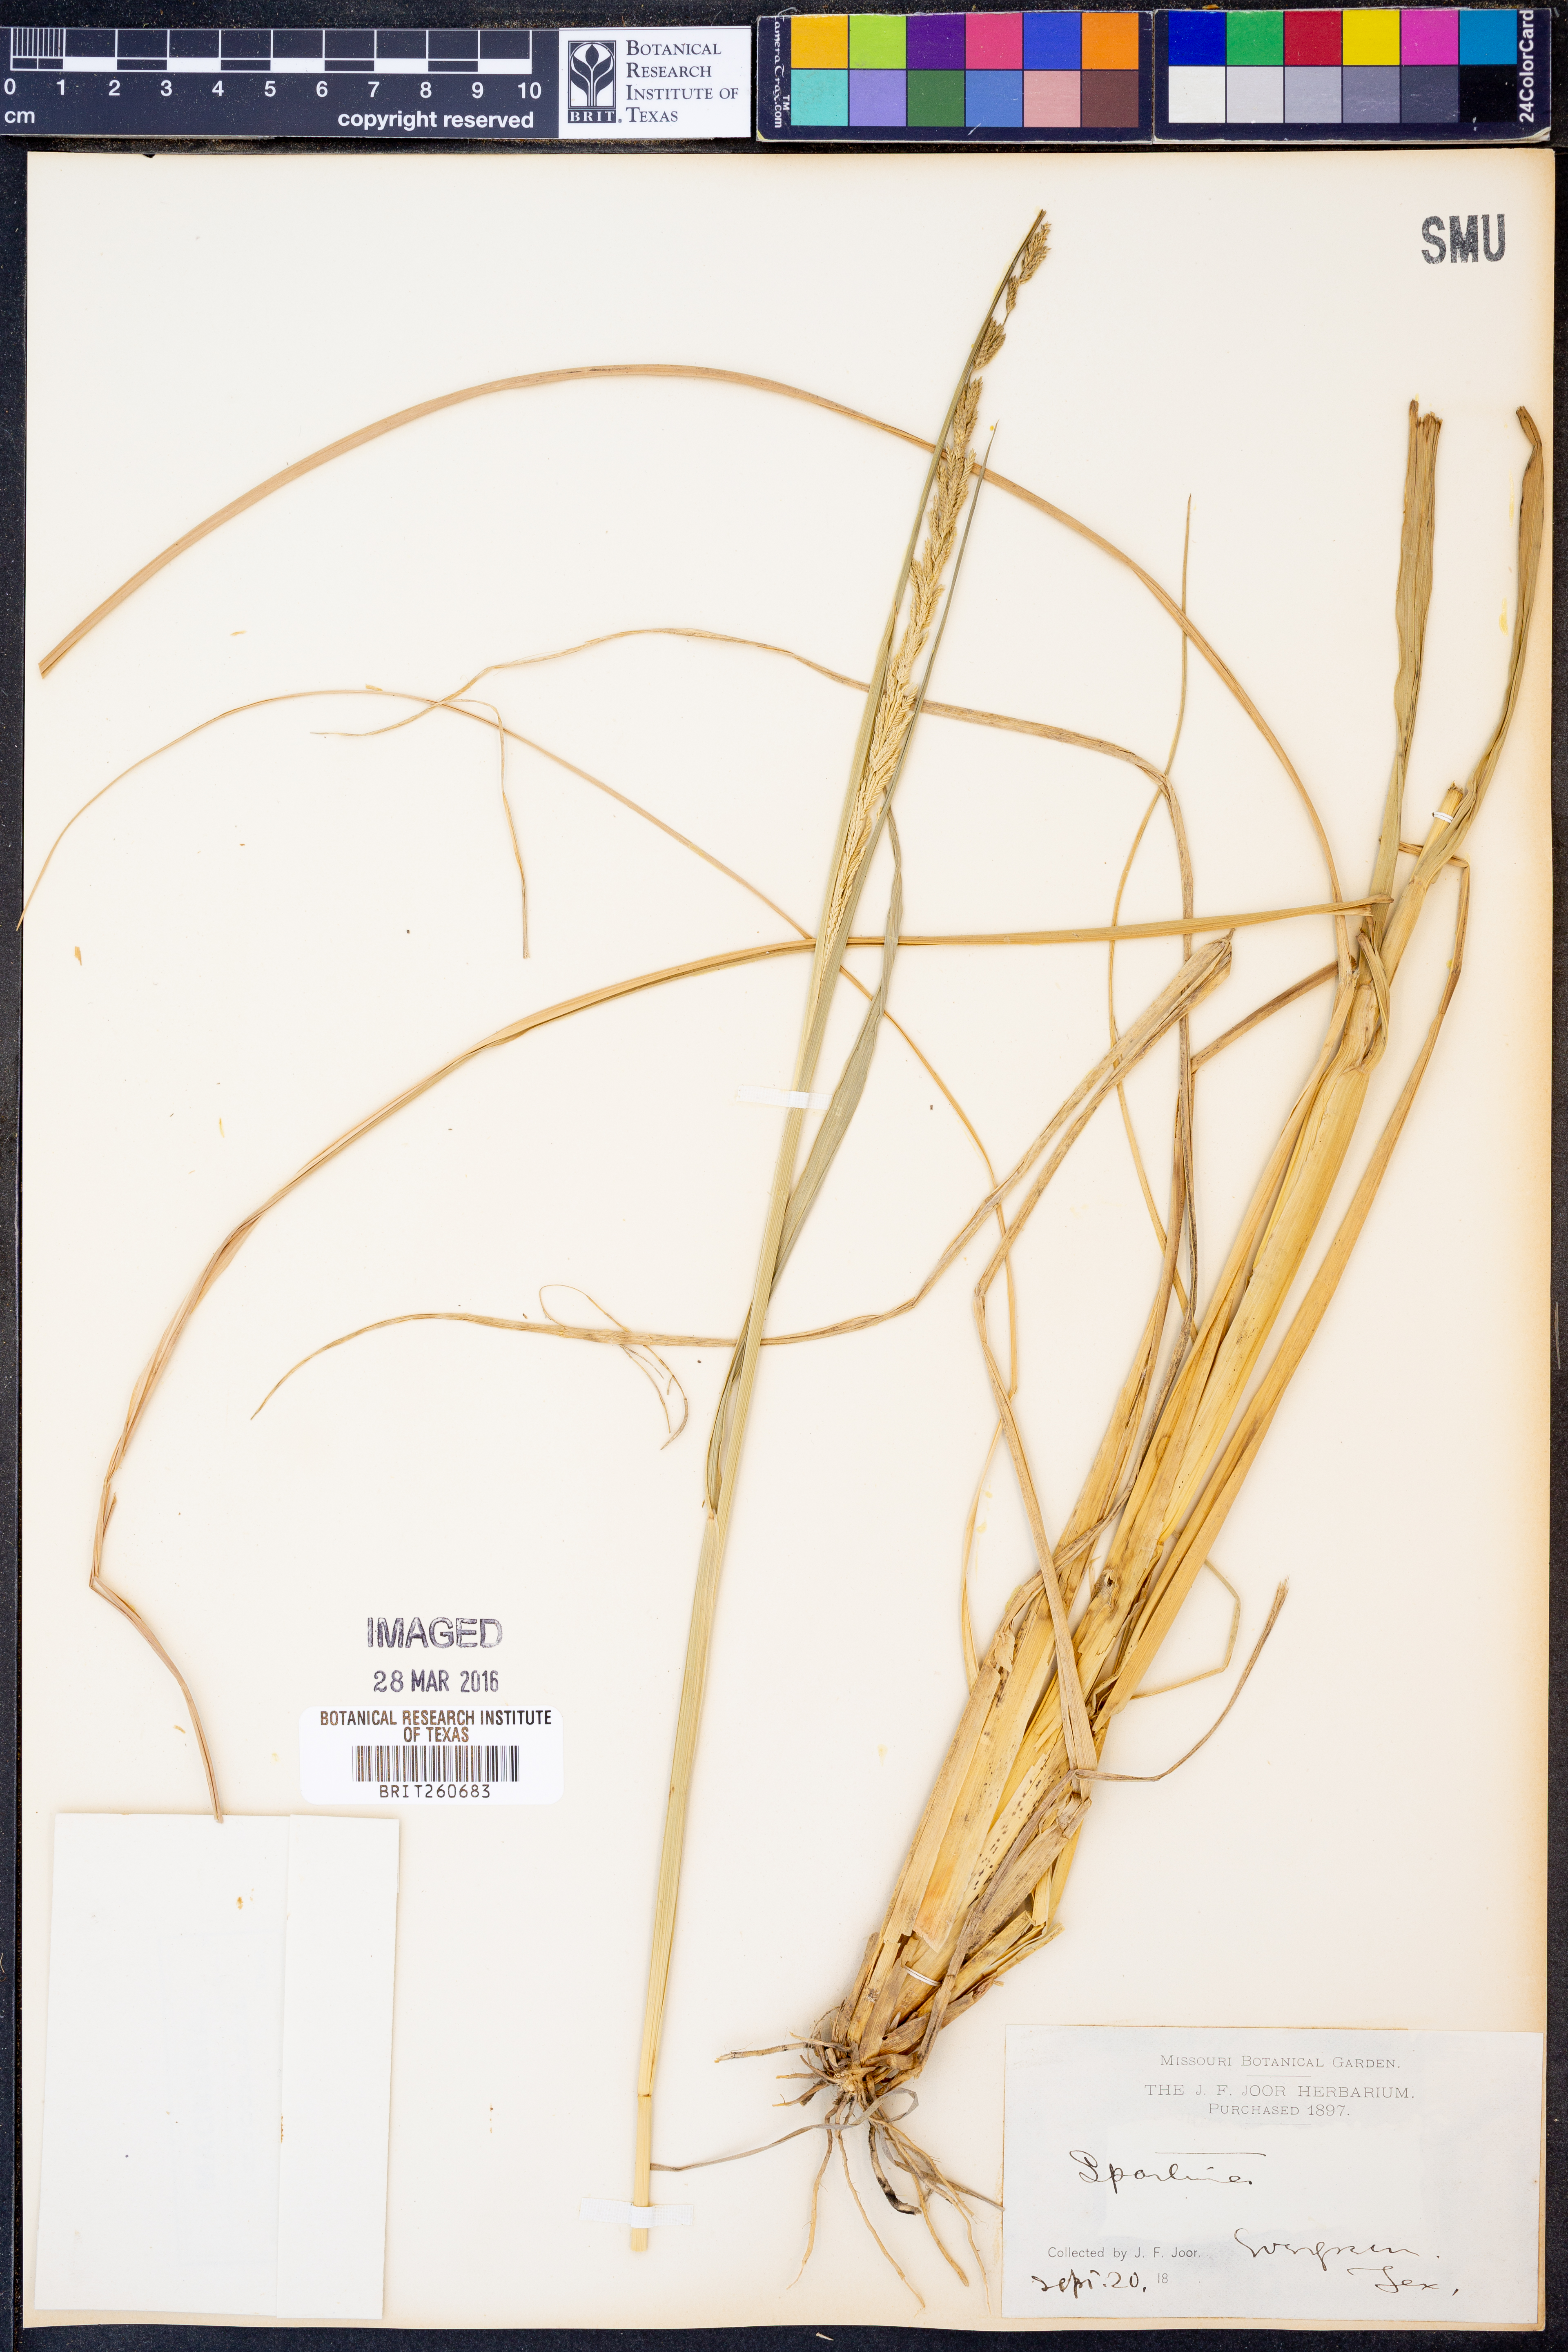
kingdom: Animalia
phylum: Mollusca
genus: Spartina
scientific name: Spartina
